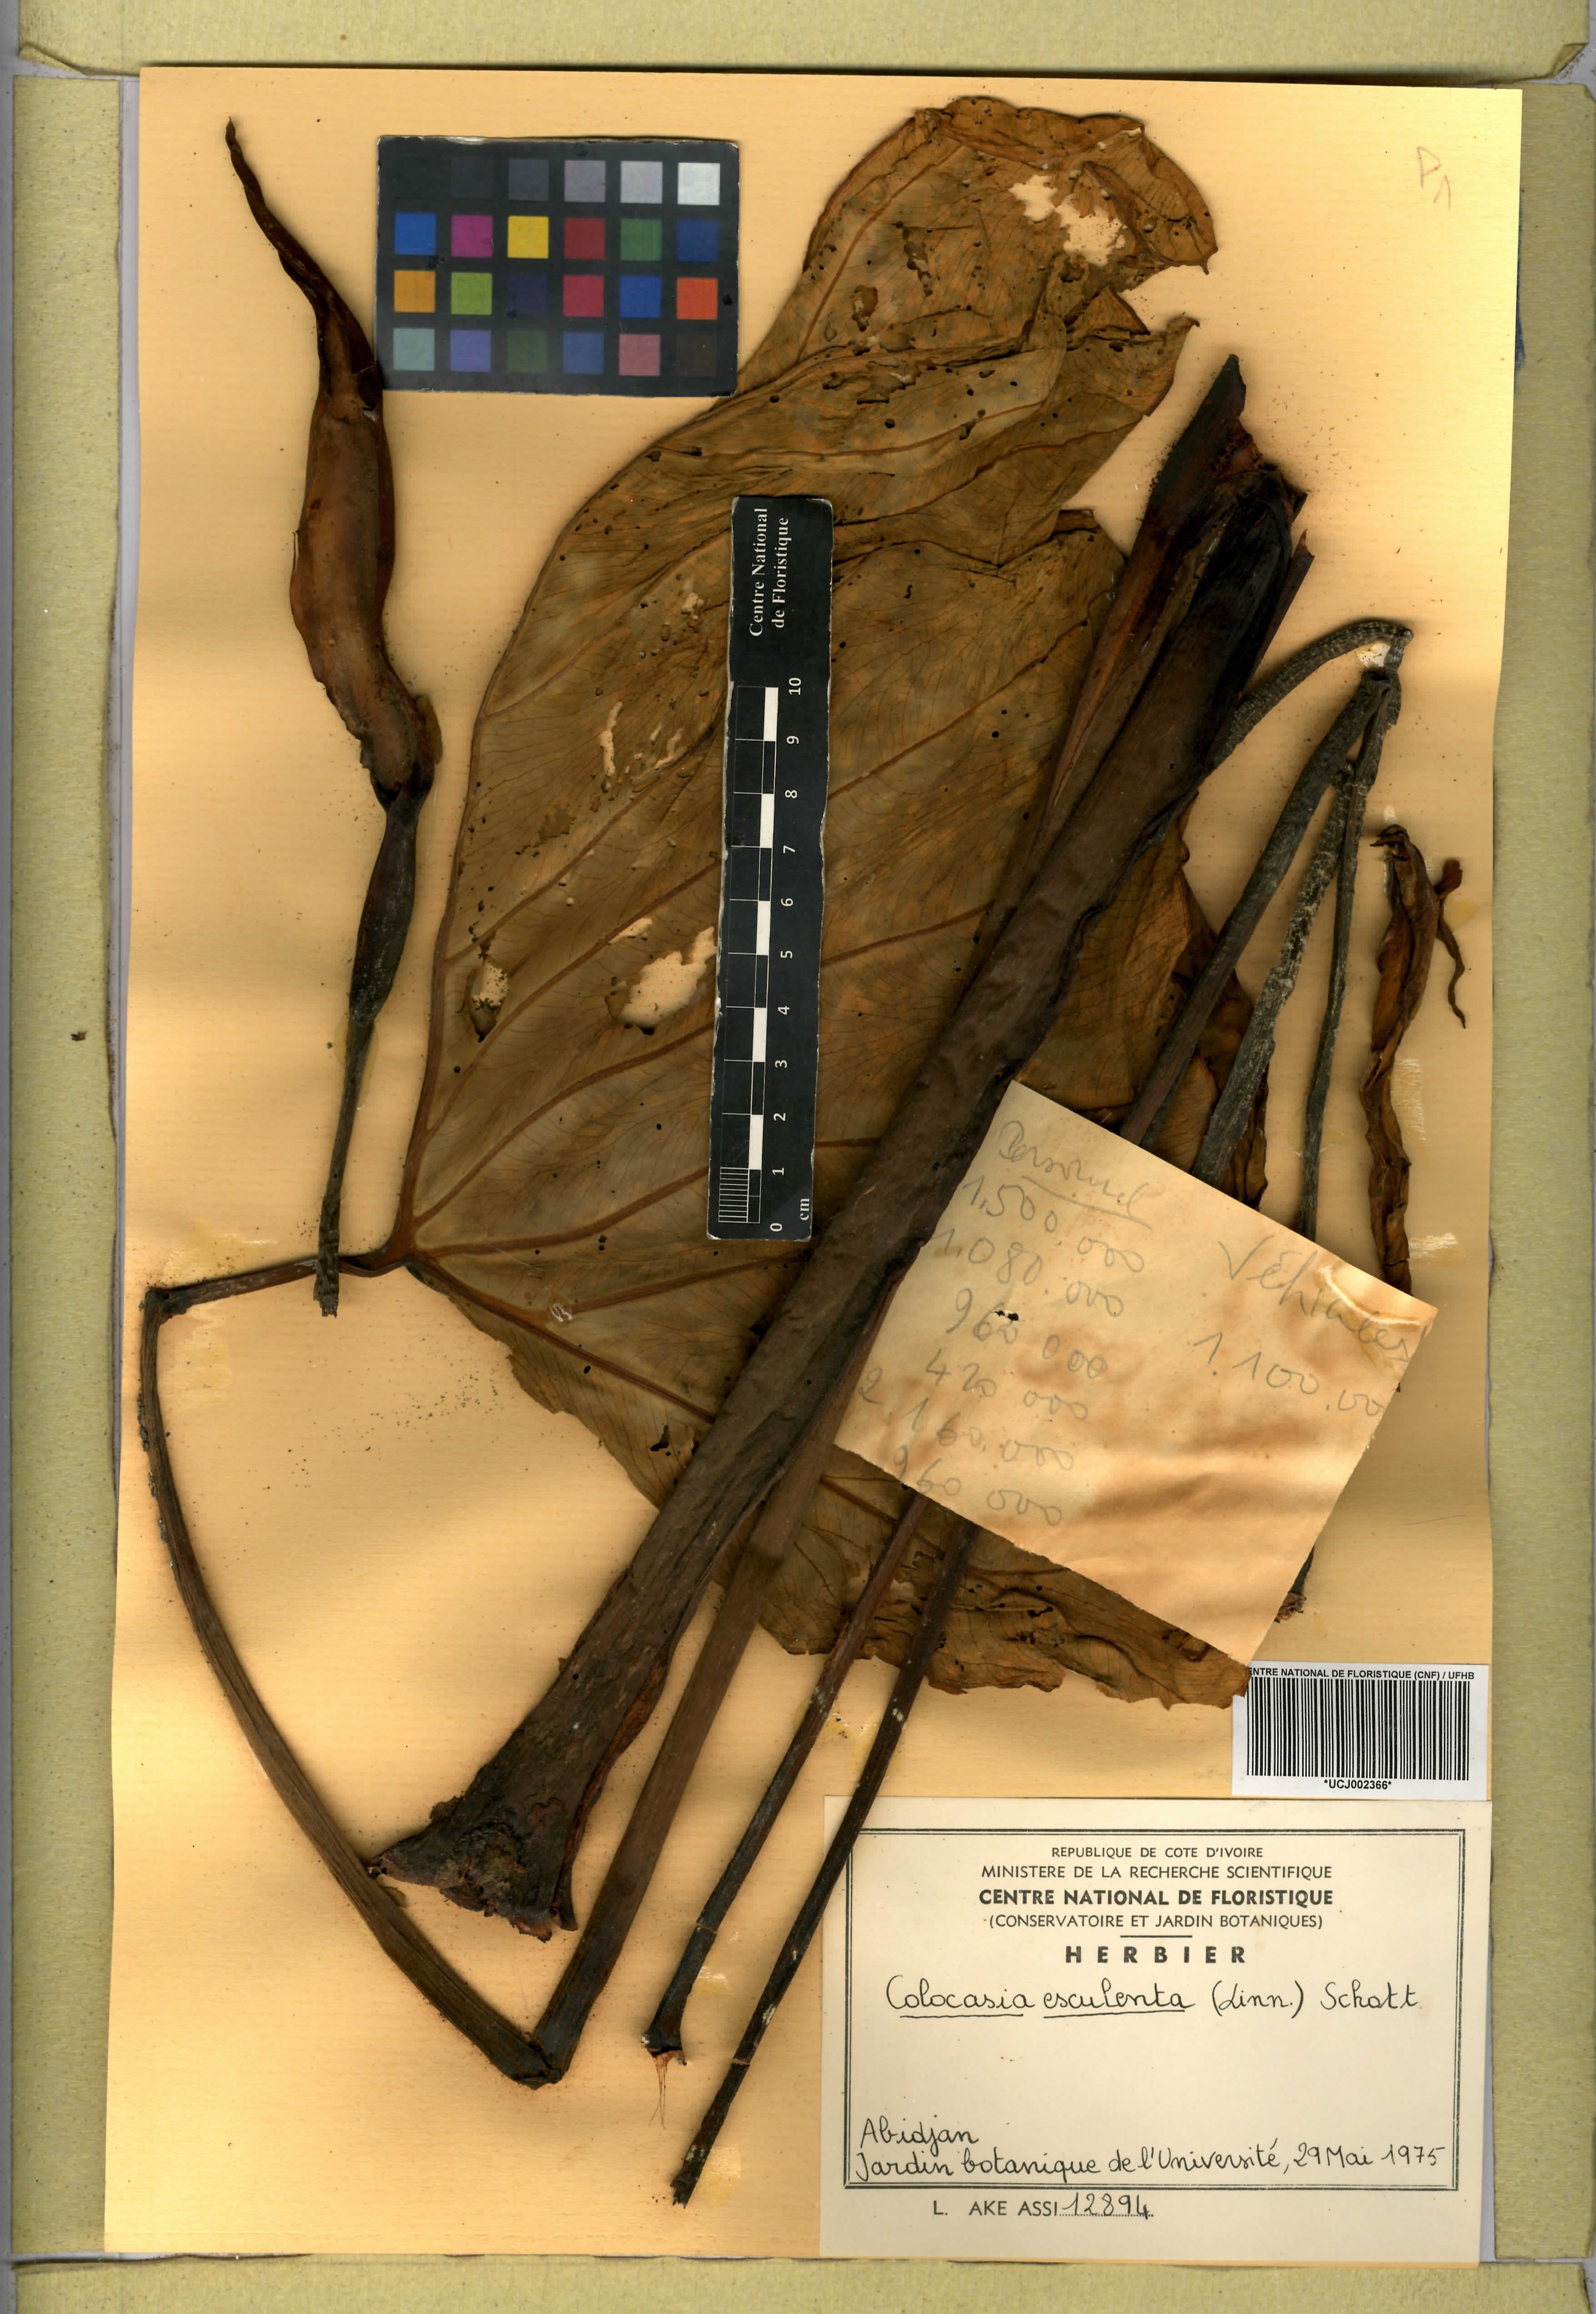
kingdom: Plantae
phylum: Tracheophyta
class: Liliopsida
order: Alismatales
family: Araceae
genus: Colocasia
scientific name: Colocasia esculenta
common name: Taro
